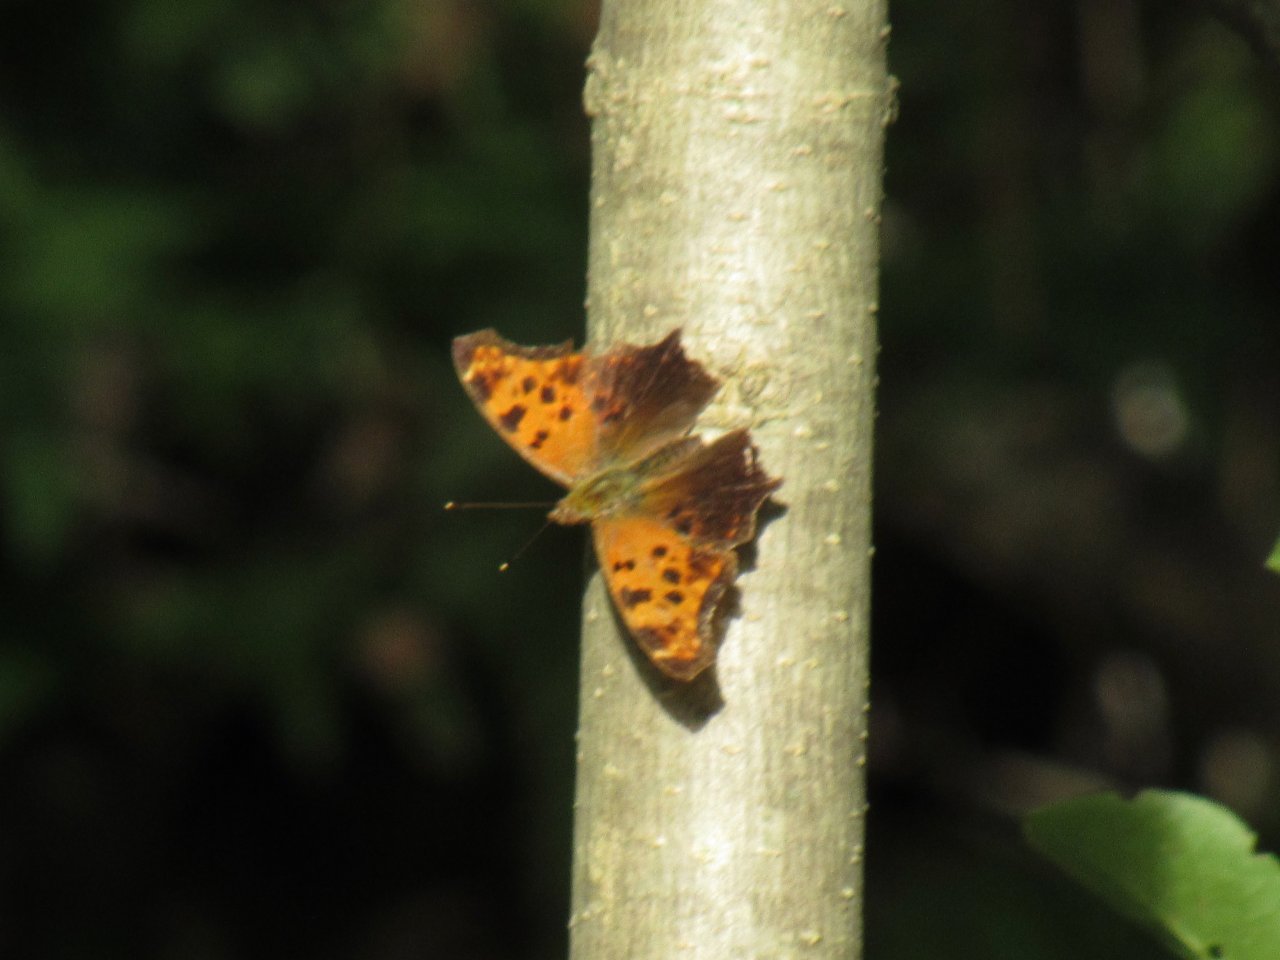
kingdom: Animalia
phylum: Arthropoda
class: Insecta
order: Lepidoptera
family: Nymphalidae
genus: Polygonia
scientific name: Polygonia comma
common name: Eastern Comma
